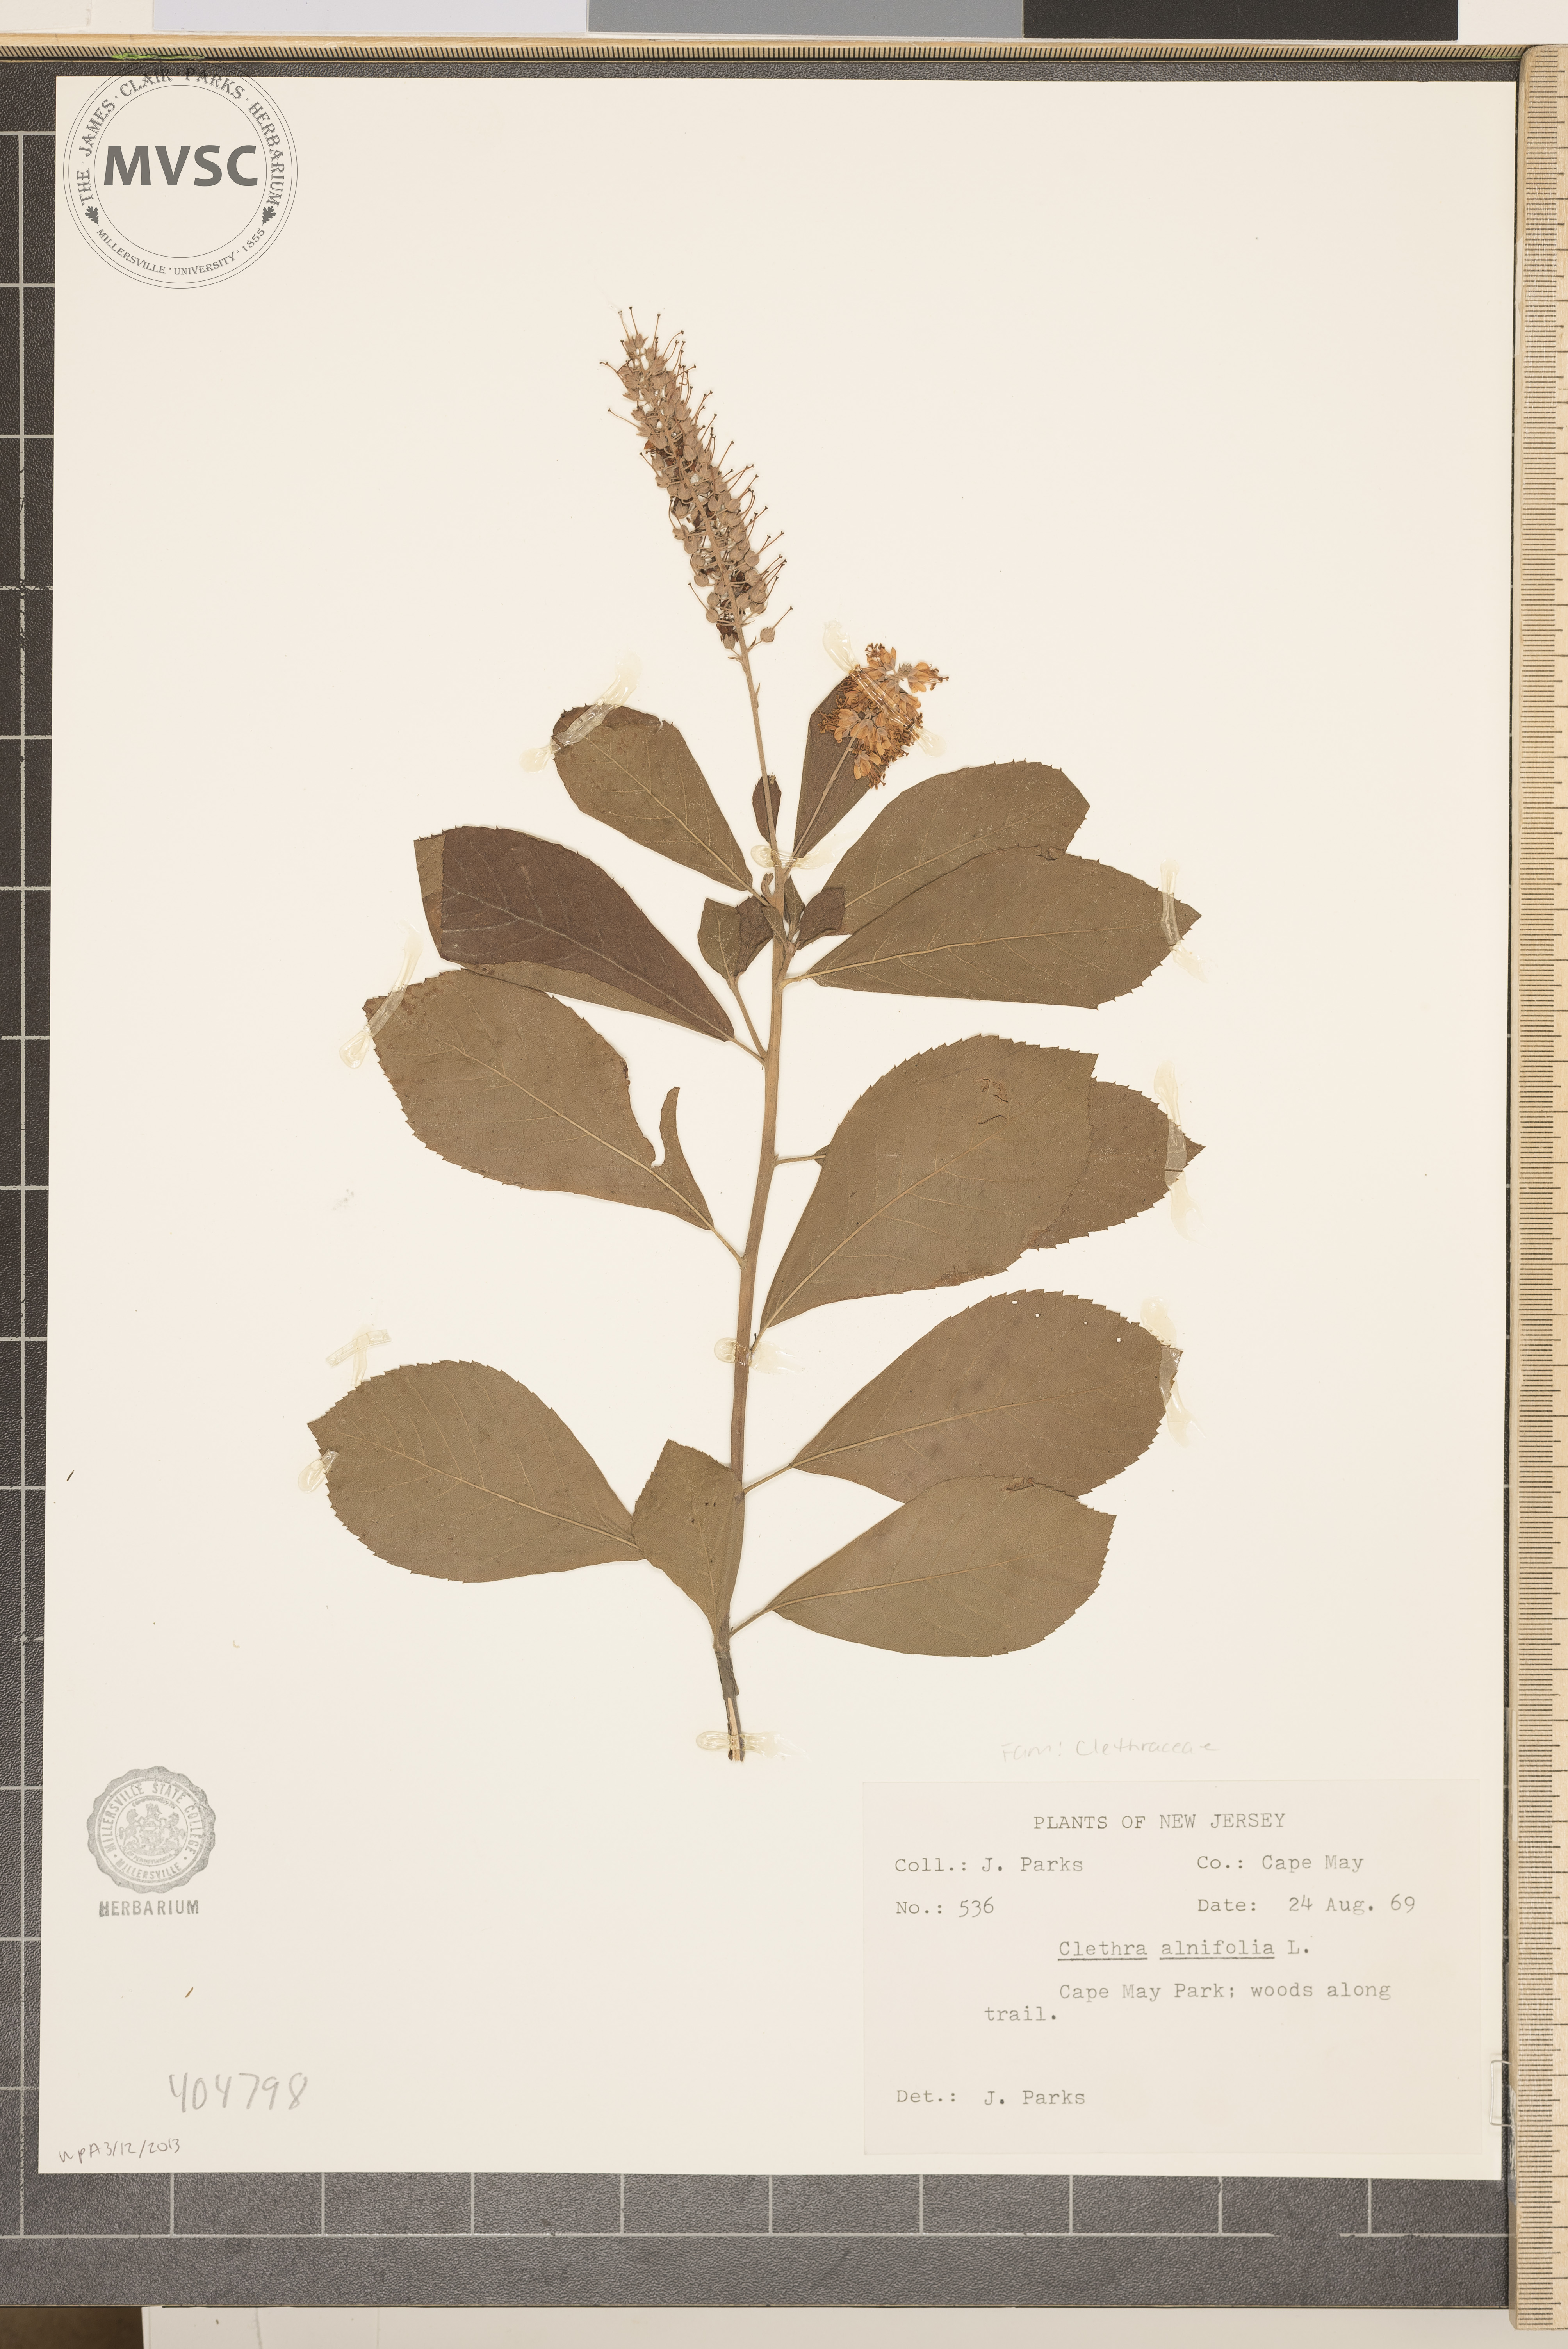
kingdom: Plantae
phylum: Tracheophyta
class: Magnoliopsida
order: Ericales
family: Clethraceae
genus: Clethra
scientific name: Clethra alnifolia
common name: Sweet pepperbush
